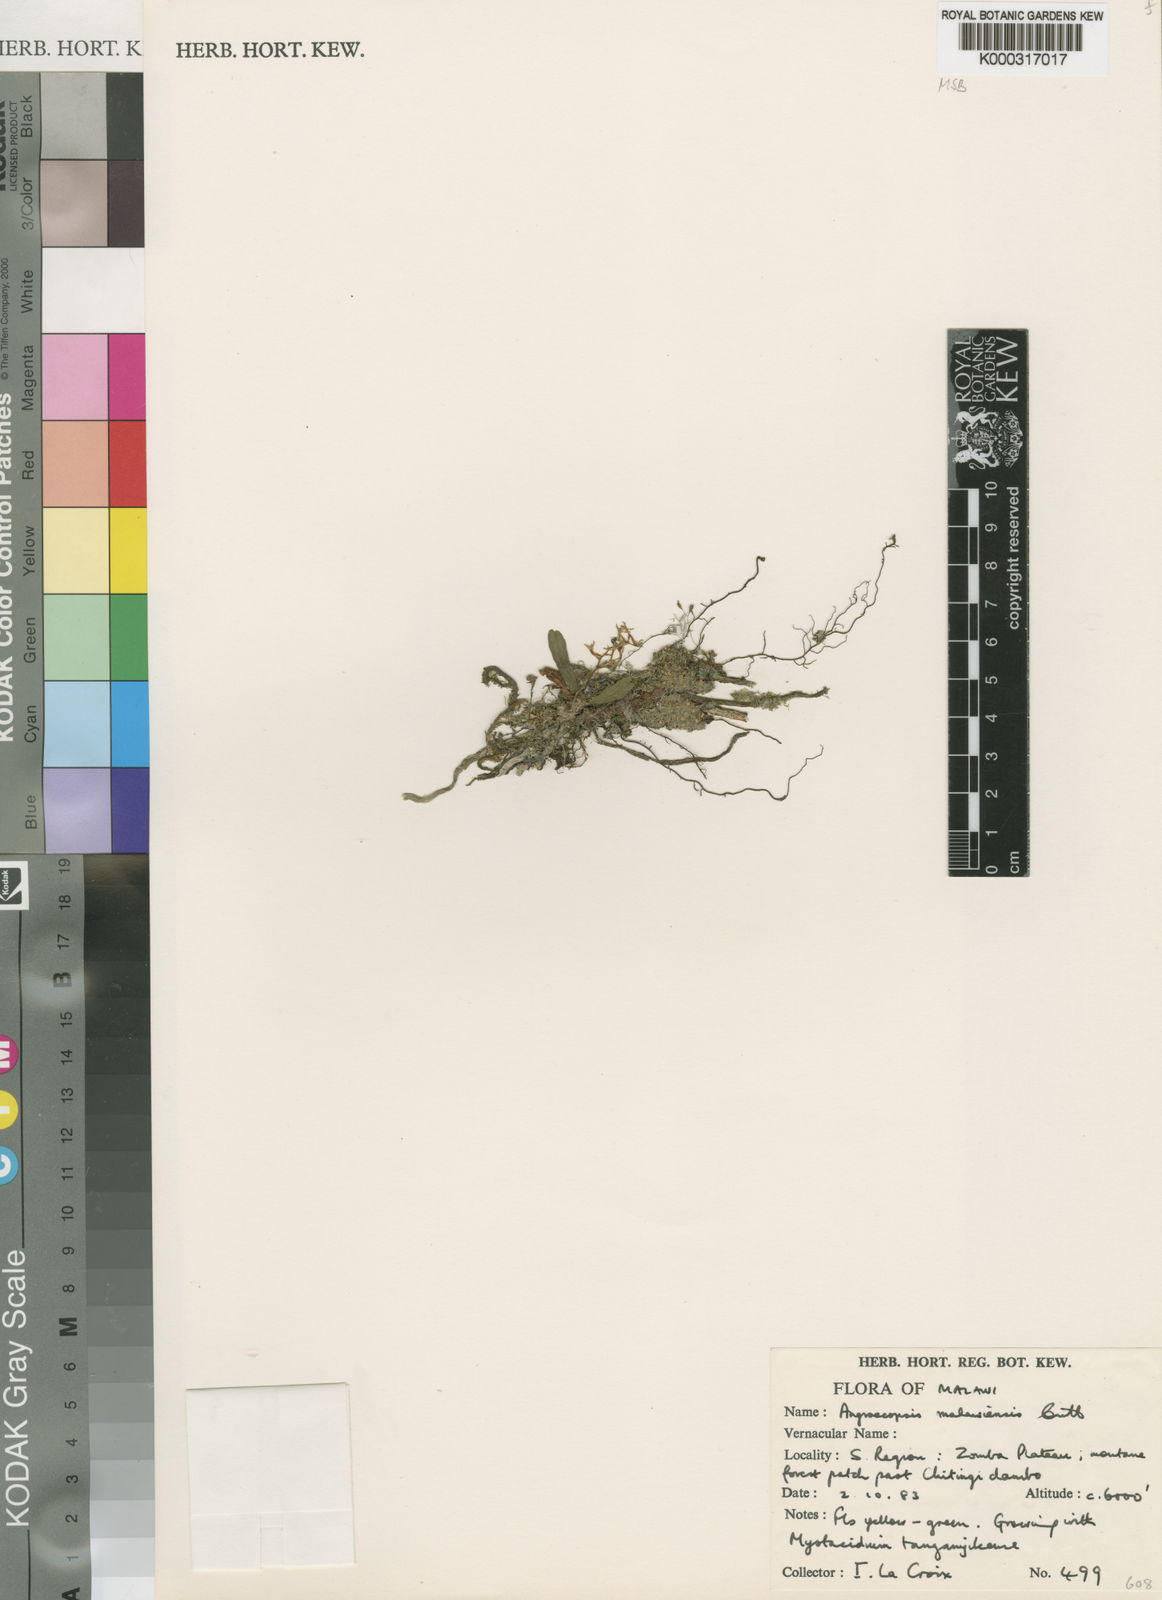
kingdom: Plantae
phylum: Tracheophyta
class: Liliopsida
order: Asparagales
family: Orchidaceae
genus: Angraecopsis
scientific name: Angraecopsis malawiensis
